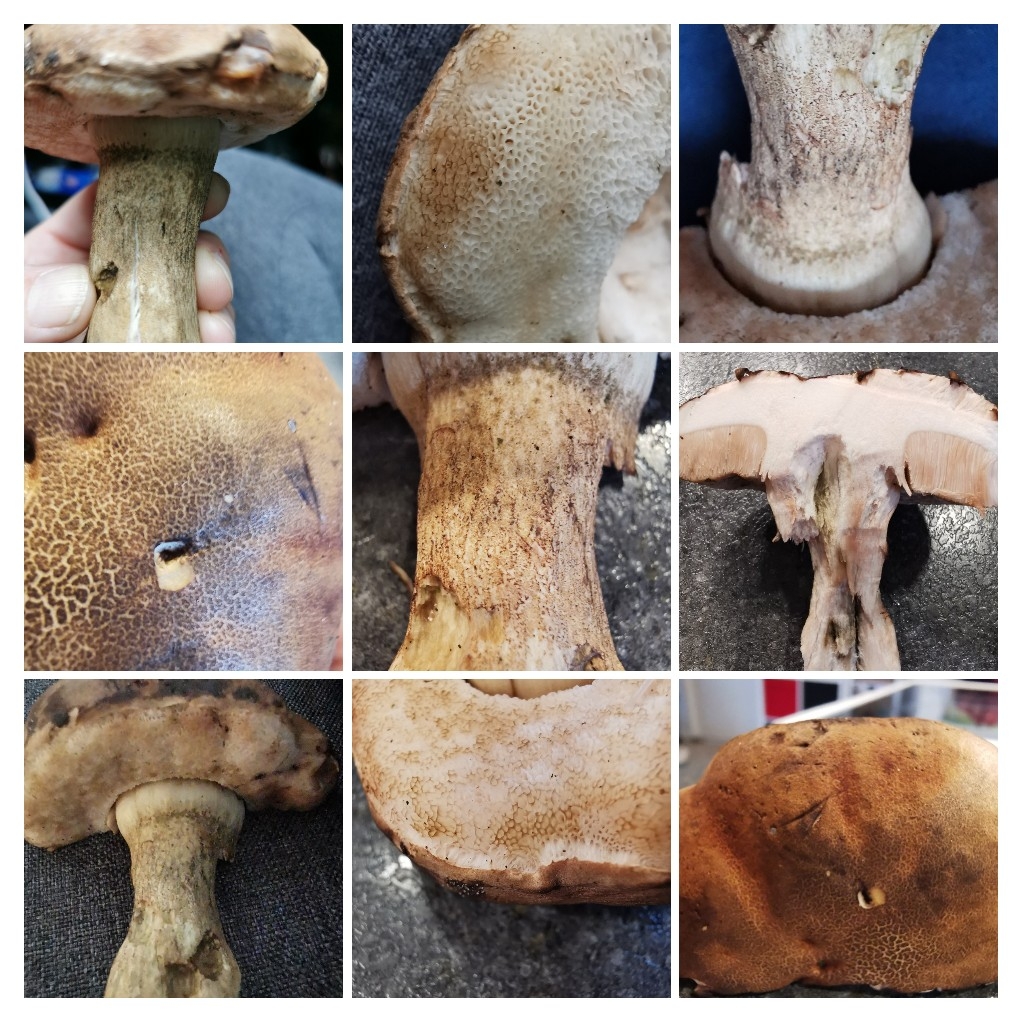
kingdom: Fungi
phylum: Basidiomycota
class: Agaricomycetes
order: Boletales
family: Boletaceae
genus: Tylopilus
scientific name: Tylopilus felleus
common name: galderørhat
